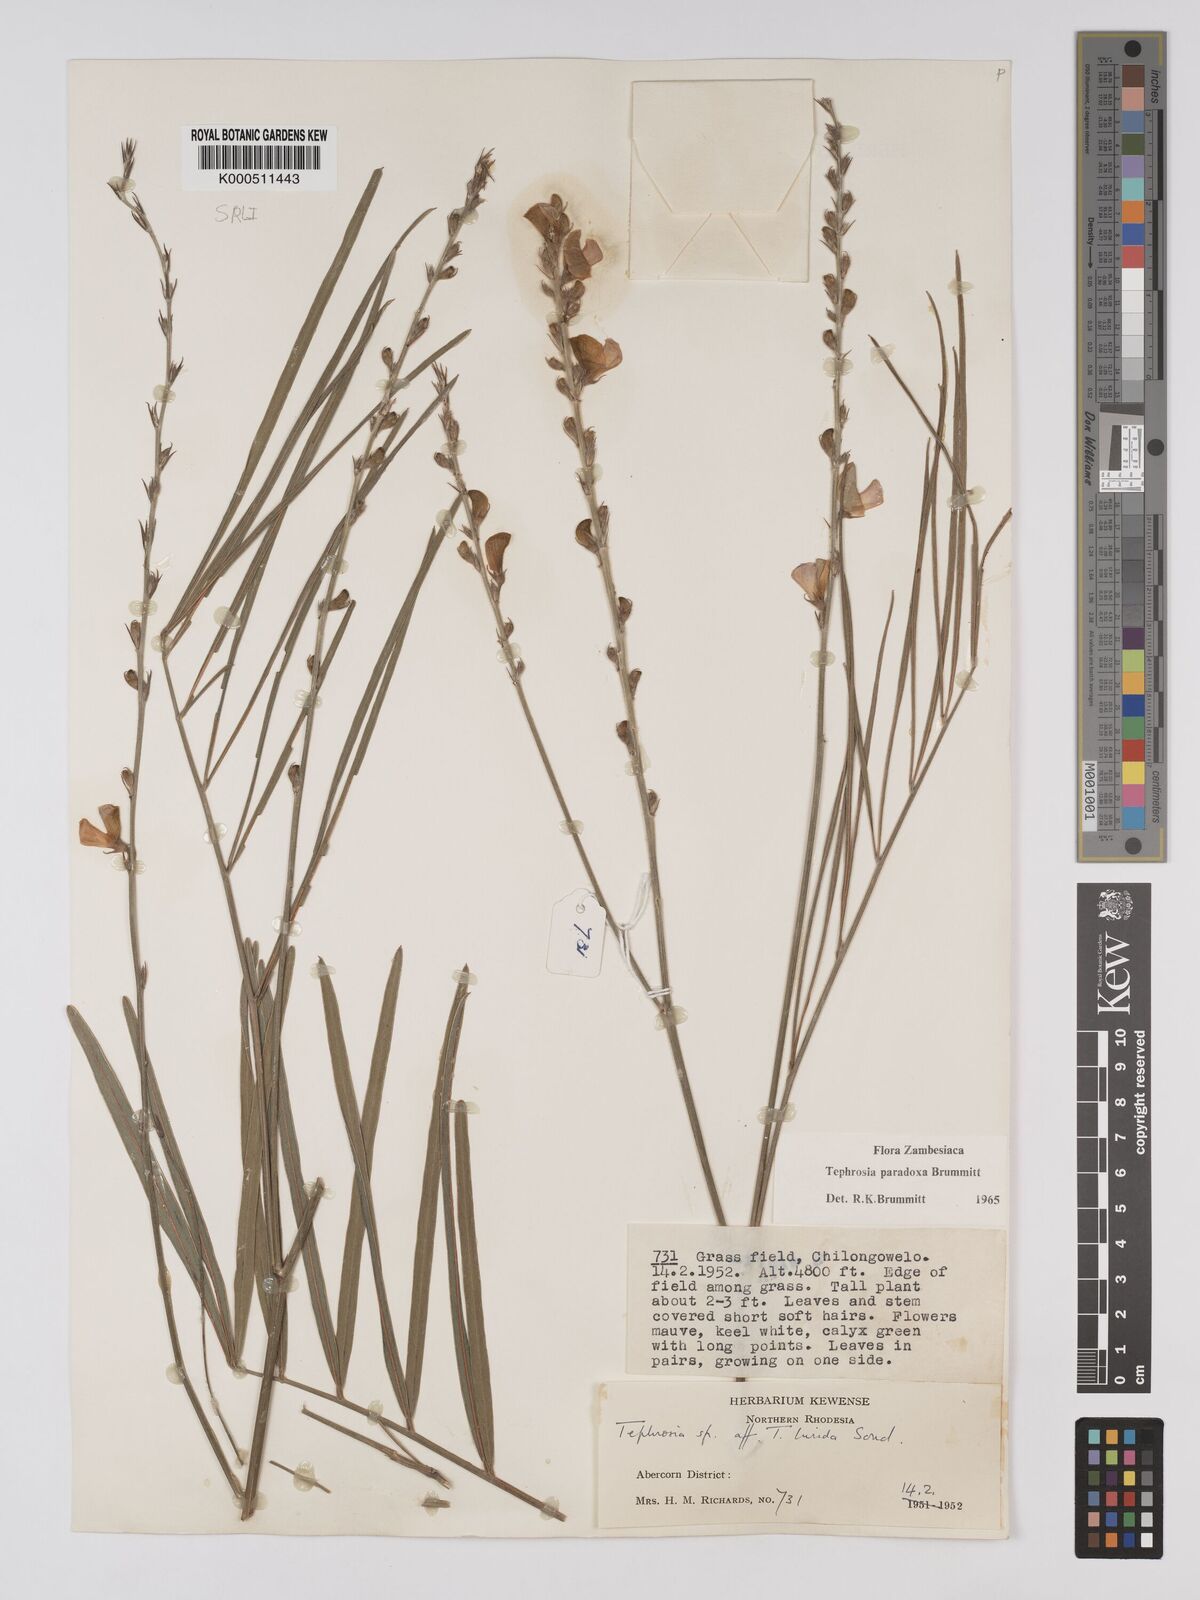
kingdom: Plantae
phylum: Tracheophyta
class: Magnoliopsida
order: Fabales
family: Fabaceae
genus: Tephrosia
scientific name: Tephrosia paradoxa
